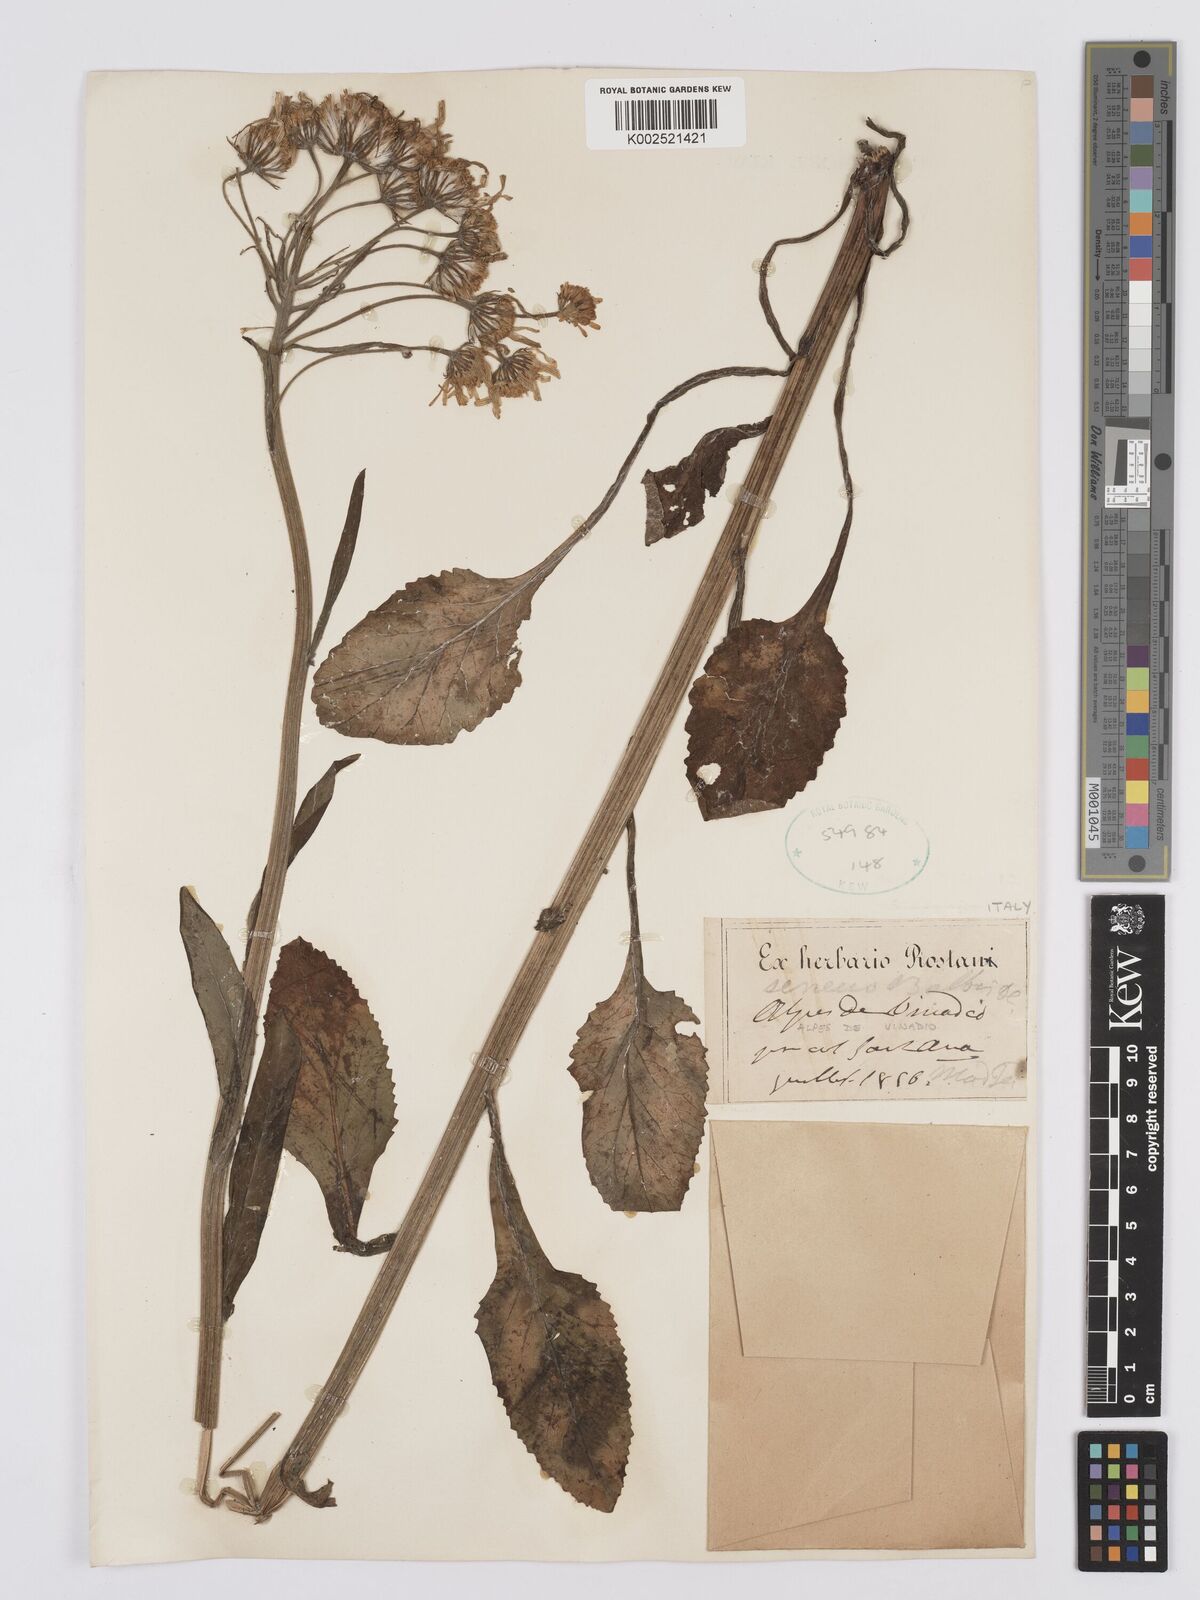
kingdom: Plantae
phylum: Tracheophyta
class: Magnoliopsida
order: Asterales
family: Asteraceae
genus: Tephroseris
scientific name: Tephroseris balbisiana
